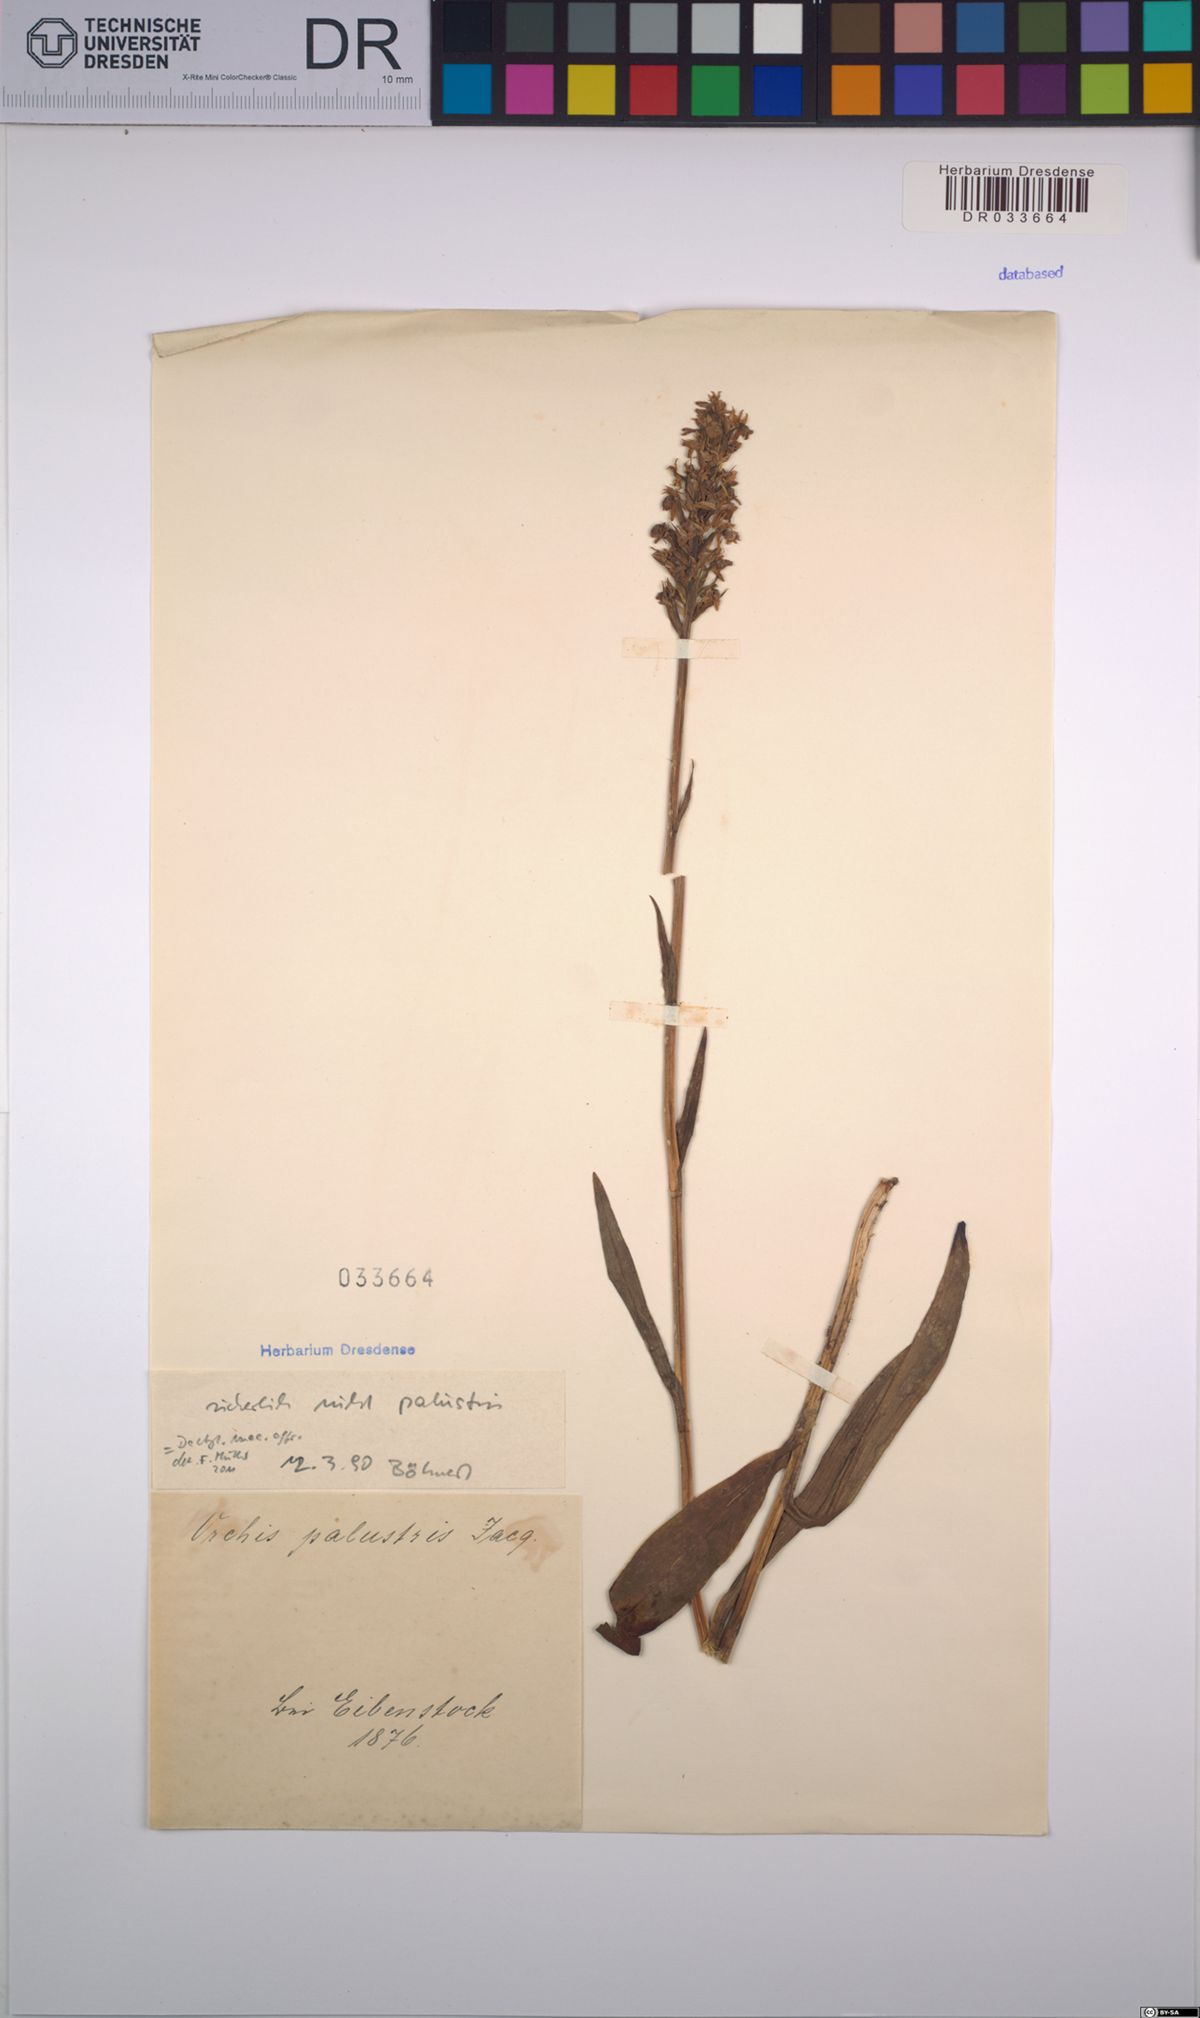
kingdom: Plantae
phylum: Tracheophyta
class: Liliopsida
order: Asparagales
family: Orchidaceae
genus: Dactylorhiza
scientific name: Dactylorhiza maculata
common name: Heath spotted-orchid
